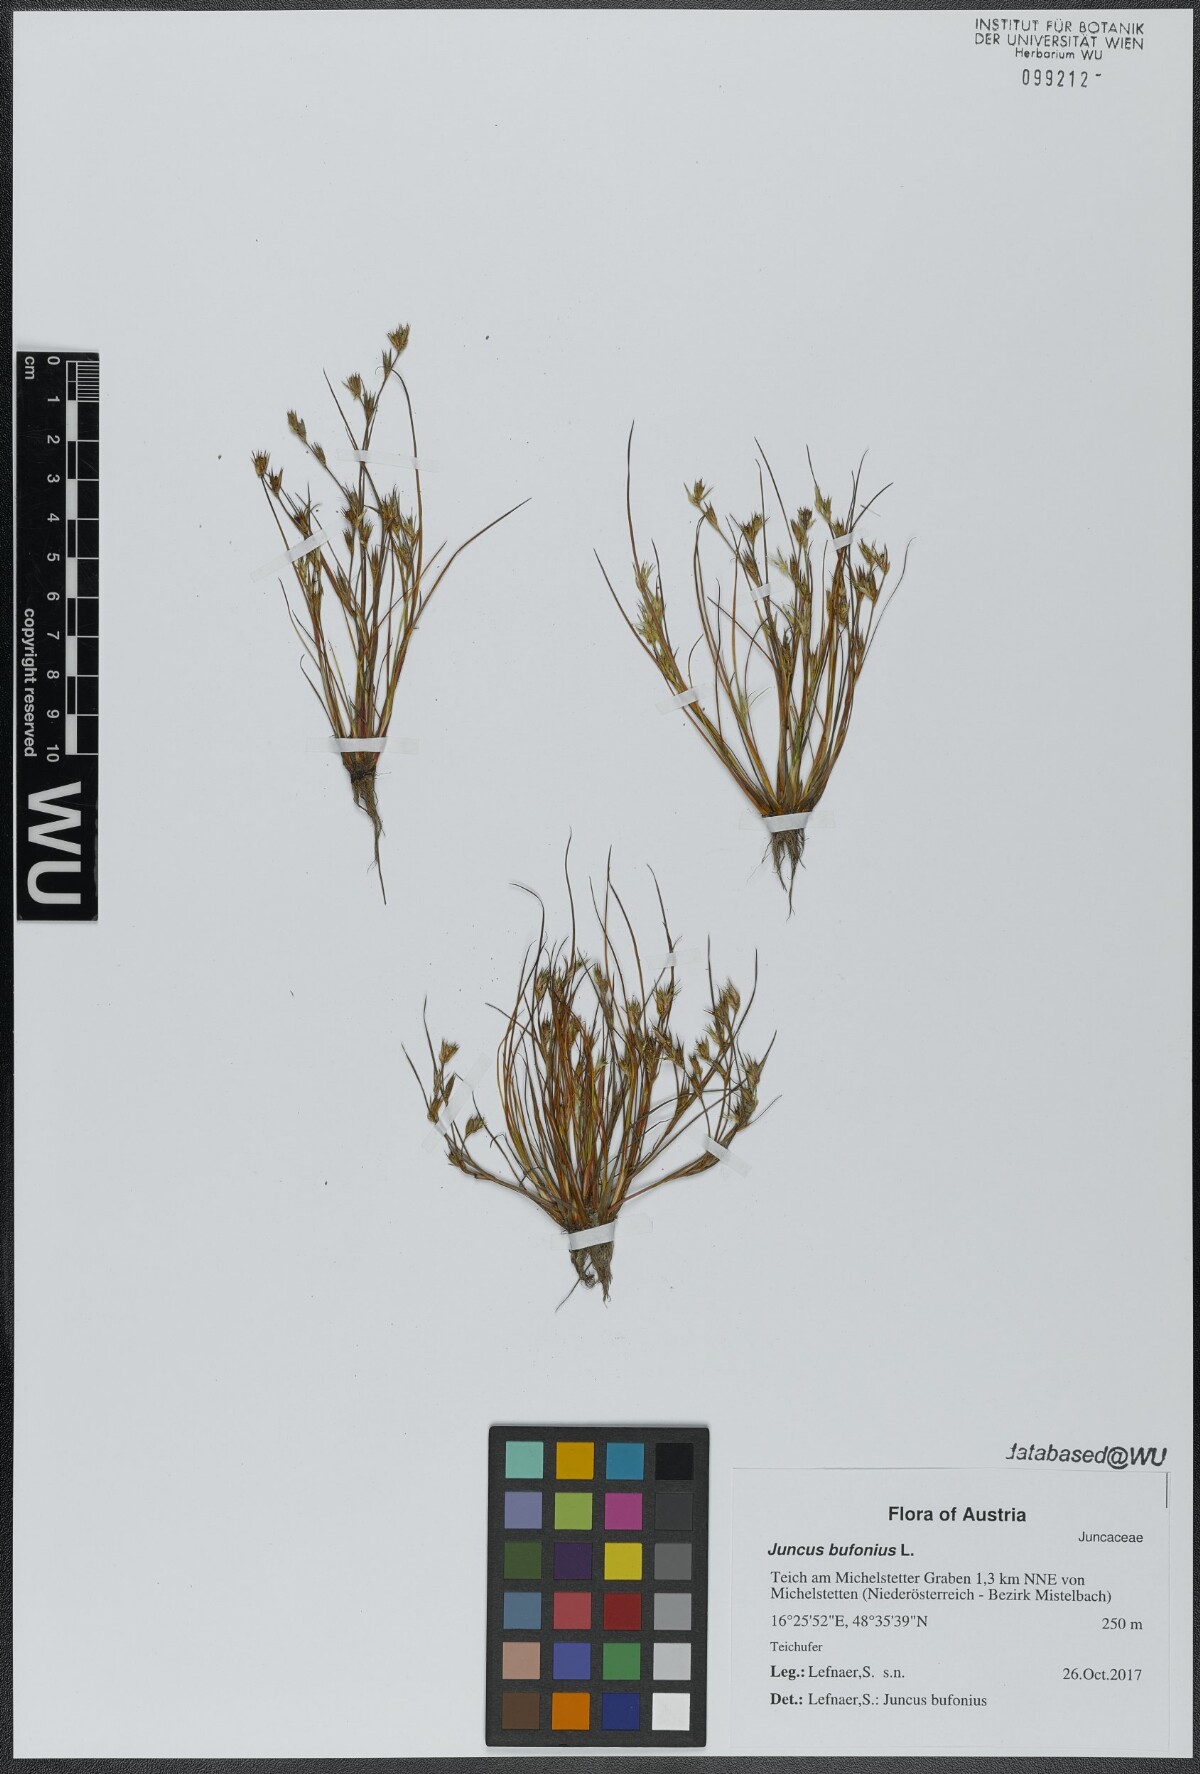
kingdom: Plantae
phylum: Tracheophyta
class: Liliopsida
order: Poales
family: Juncaceae
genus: Juncus
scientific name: Juncus bufonius
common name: Toad rush
